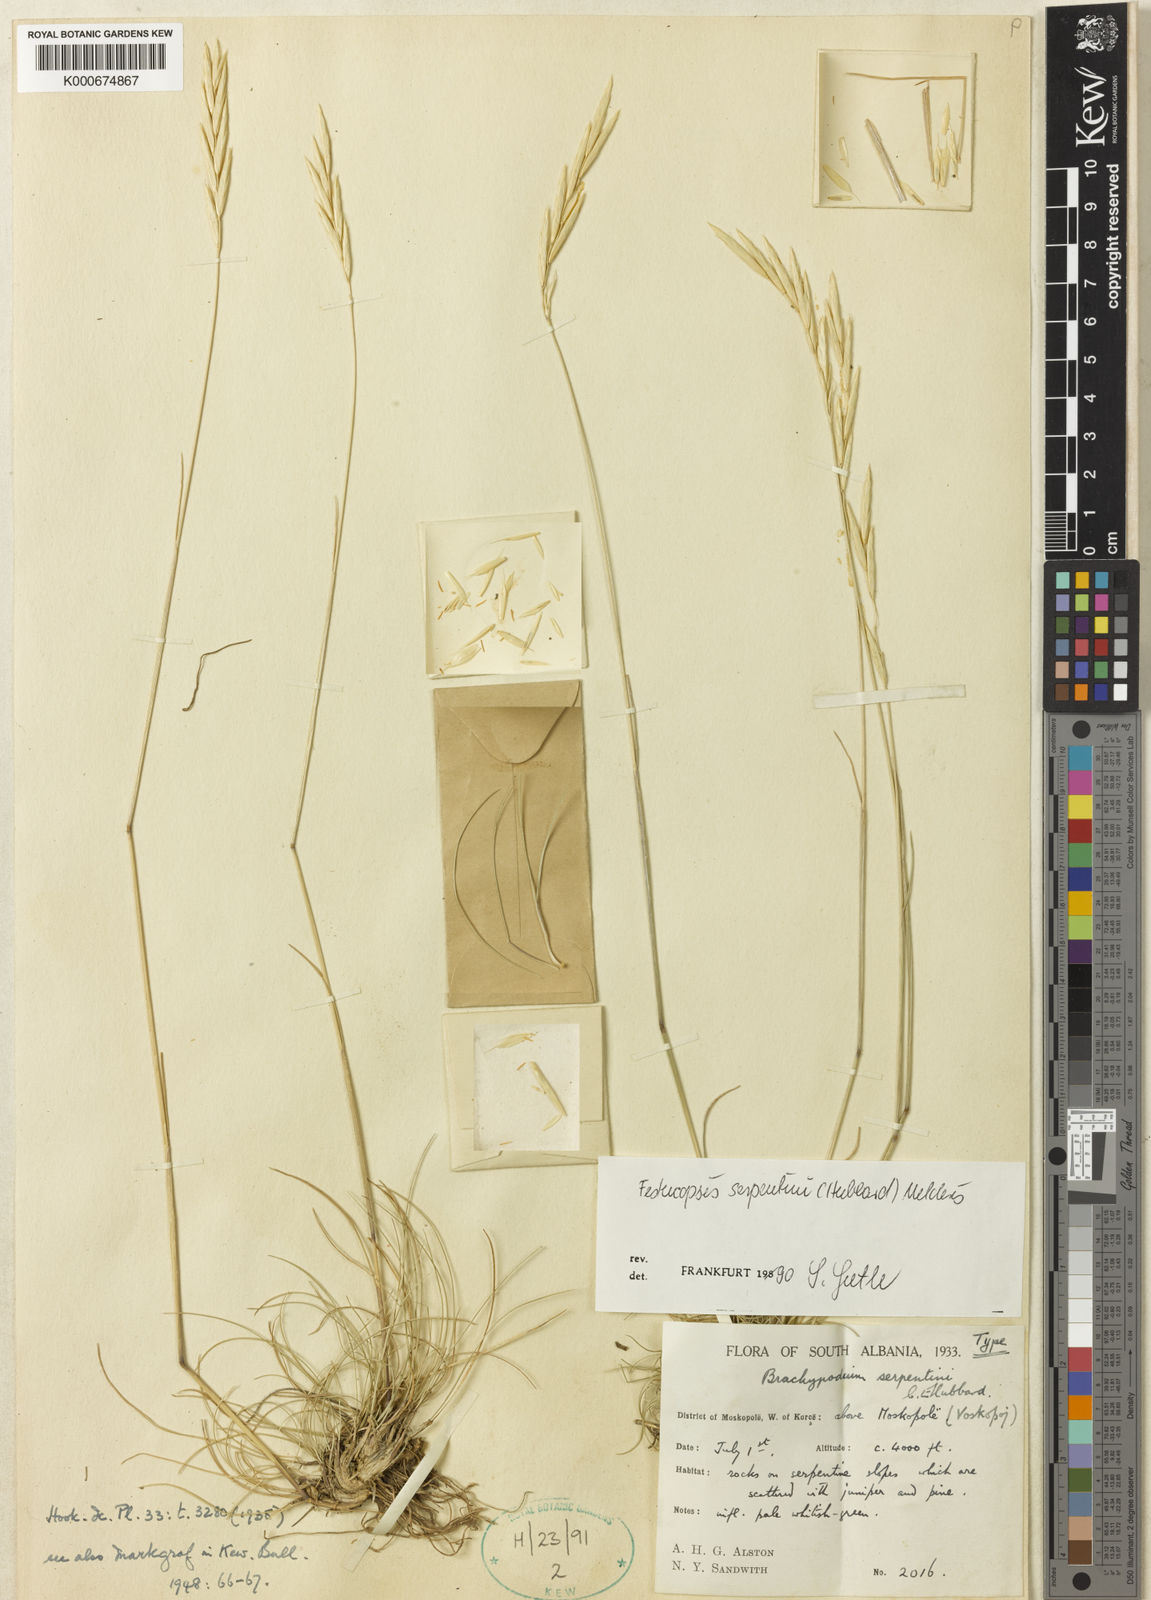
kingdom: Plantae
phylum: Tracheophyta
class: Liliopsida
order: Poales
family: Poaceae
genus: Elymus
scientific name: Elymus serpentinus
